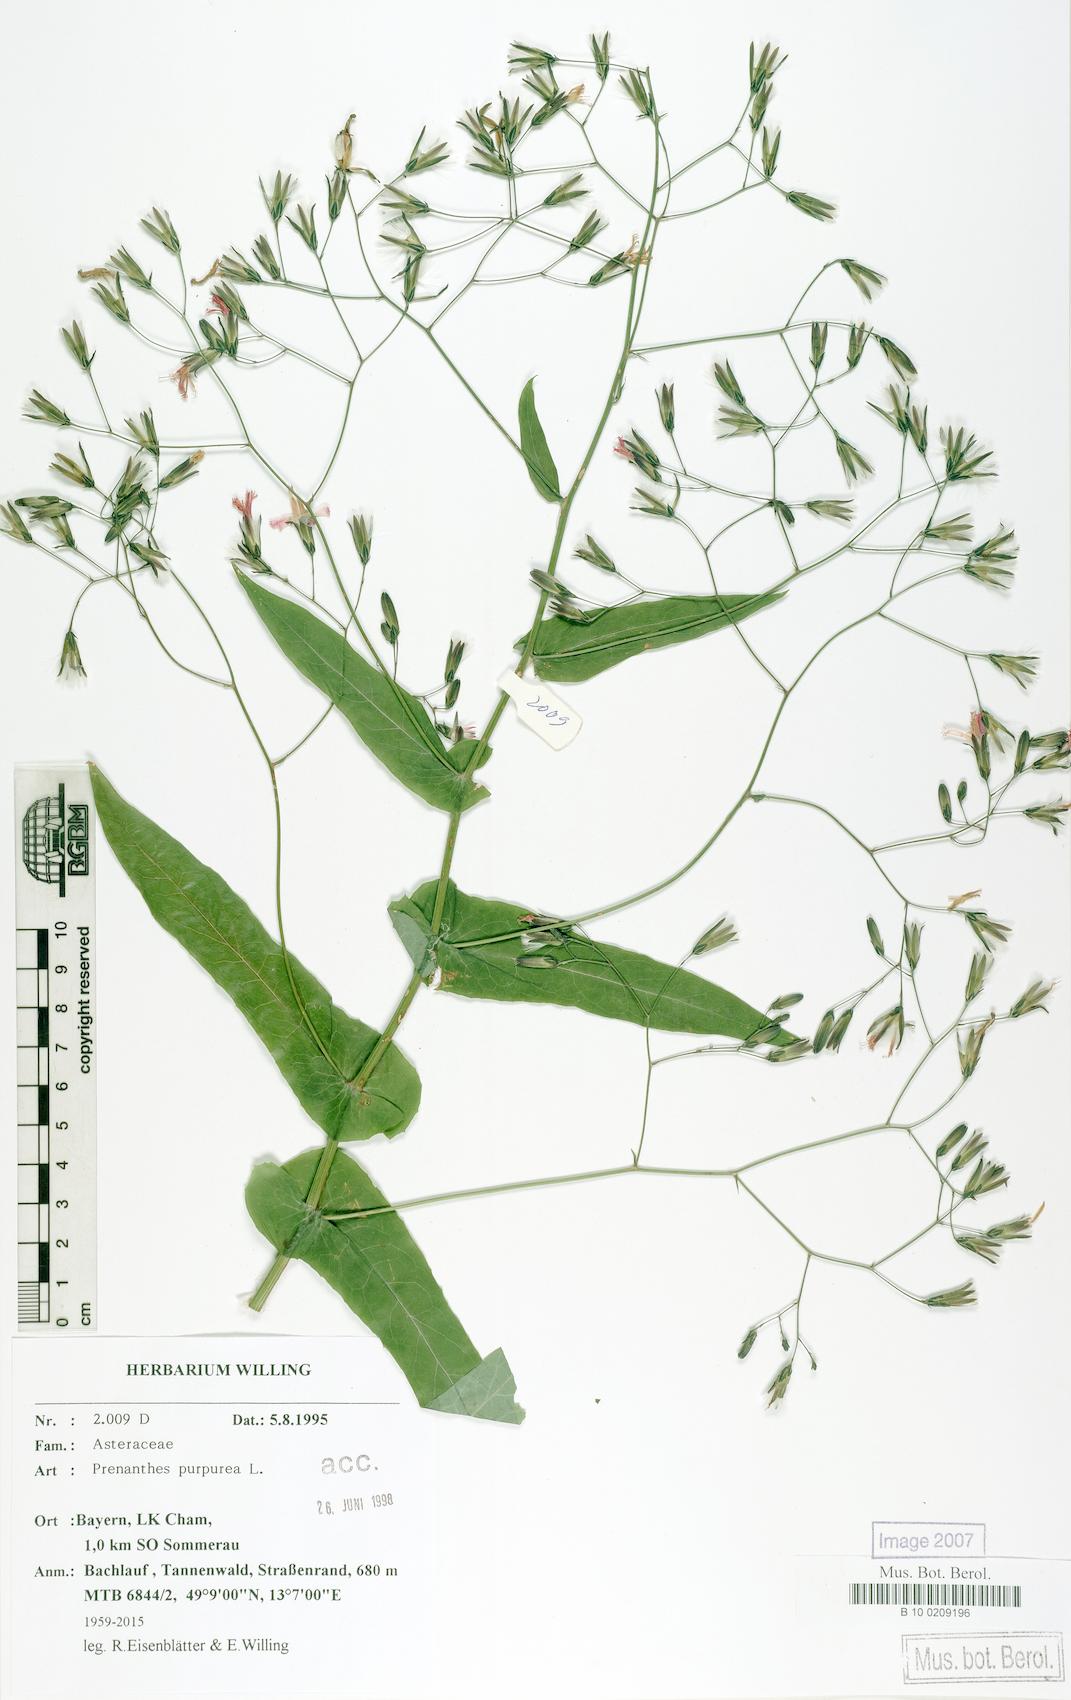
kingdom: Plantae
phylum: Tracheophyta
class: Magnoliopsida
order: Asterales
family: Asteraceae
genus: Prenanthes
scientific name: Prenanthes purpurea
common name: Purple lettuce
